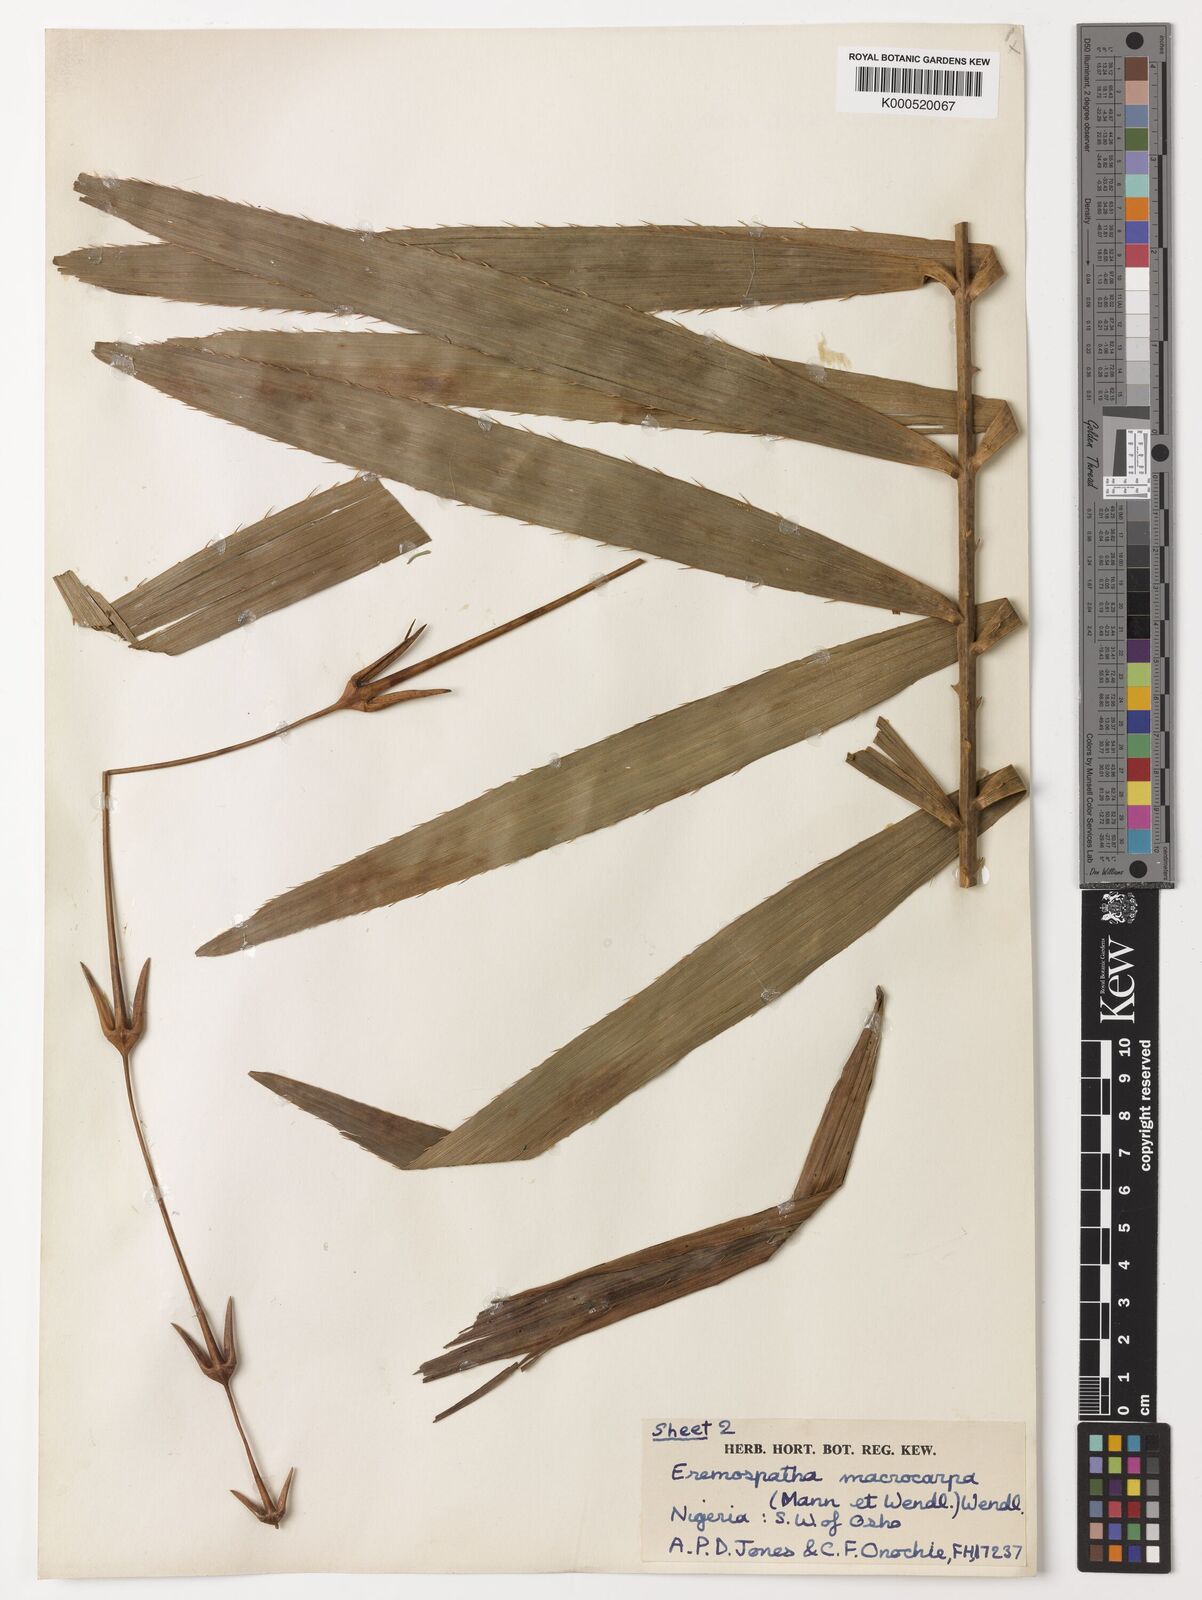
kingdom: Plantae
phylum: Tracheophyta
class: Liliopsida
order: Arecales
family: Arecaceae
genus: Eremospatha
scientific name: Eremospatha
